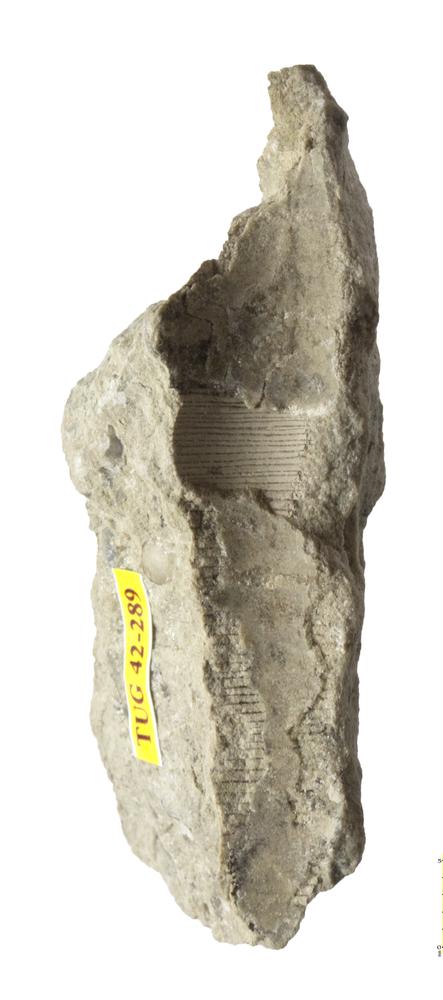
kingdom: Animalia
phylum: Mollusca
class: Cephalopoda
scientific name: Cephalopoda
